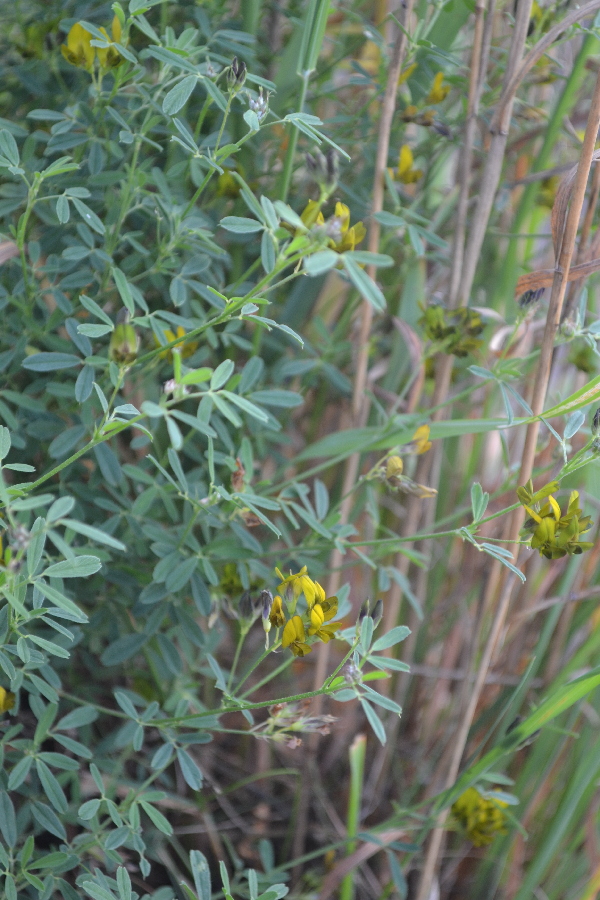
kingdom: Plantae
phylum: Tracheophyta
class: Magnoliopsida
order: Fabales
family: Fabaceae
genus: Lotus
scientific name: Lotus corniculatus
